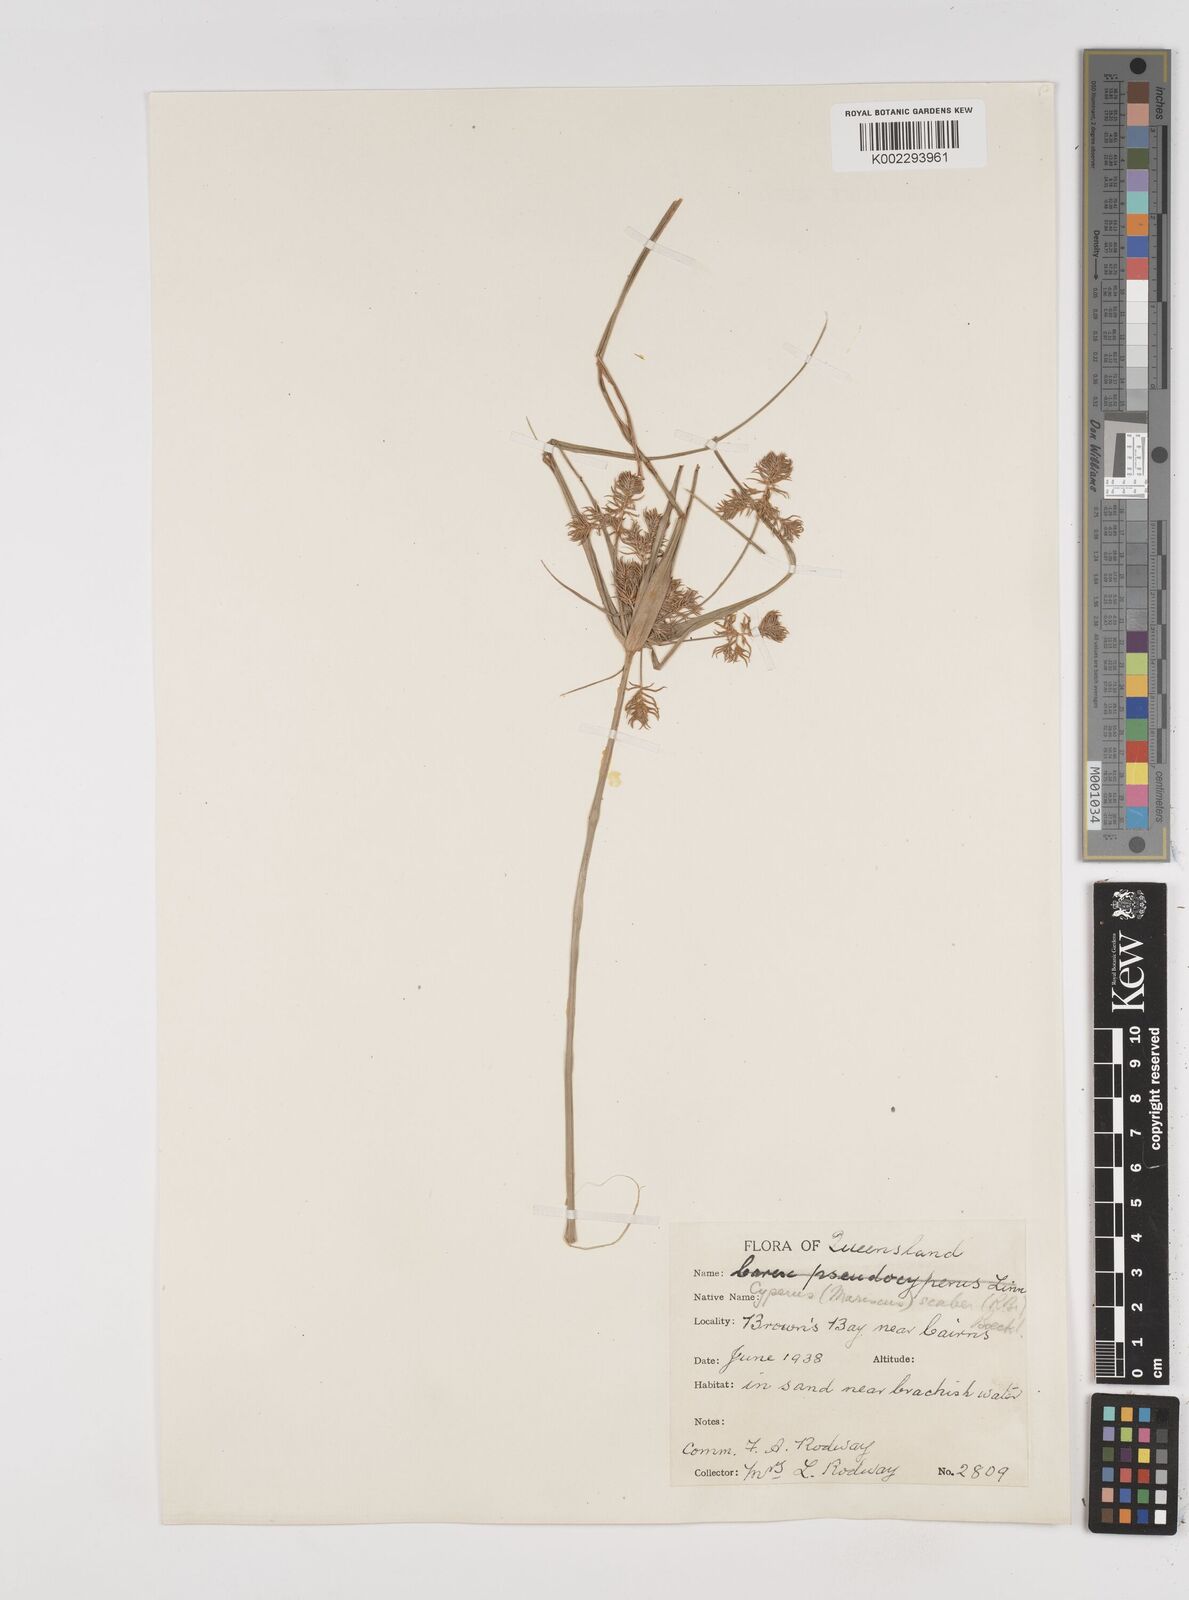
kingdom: Plantae
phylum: Tracheophyta
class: Liliopsida
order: Poales
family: Cyperaceae
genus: Cyperus
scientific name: Cyperus scaber
